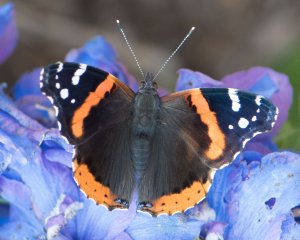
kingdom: Animalia
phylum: Arthropoda
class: Insecta
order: Lepidoptera
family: Nymphalidae
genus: Vanessa
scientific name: Vanessa atalanta
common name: Red Admiral
